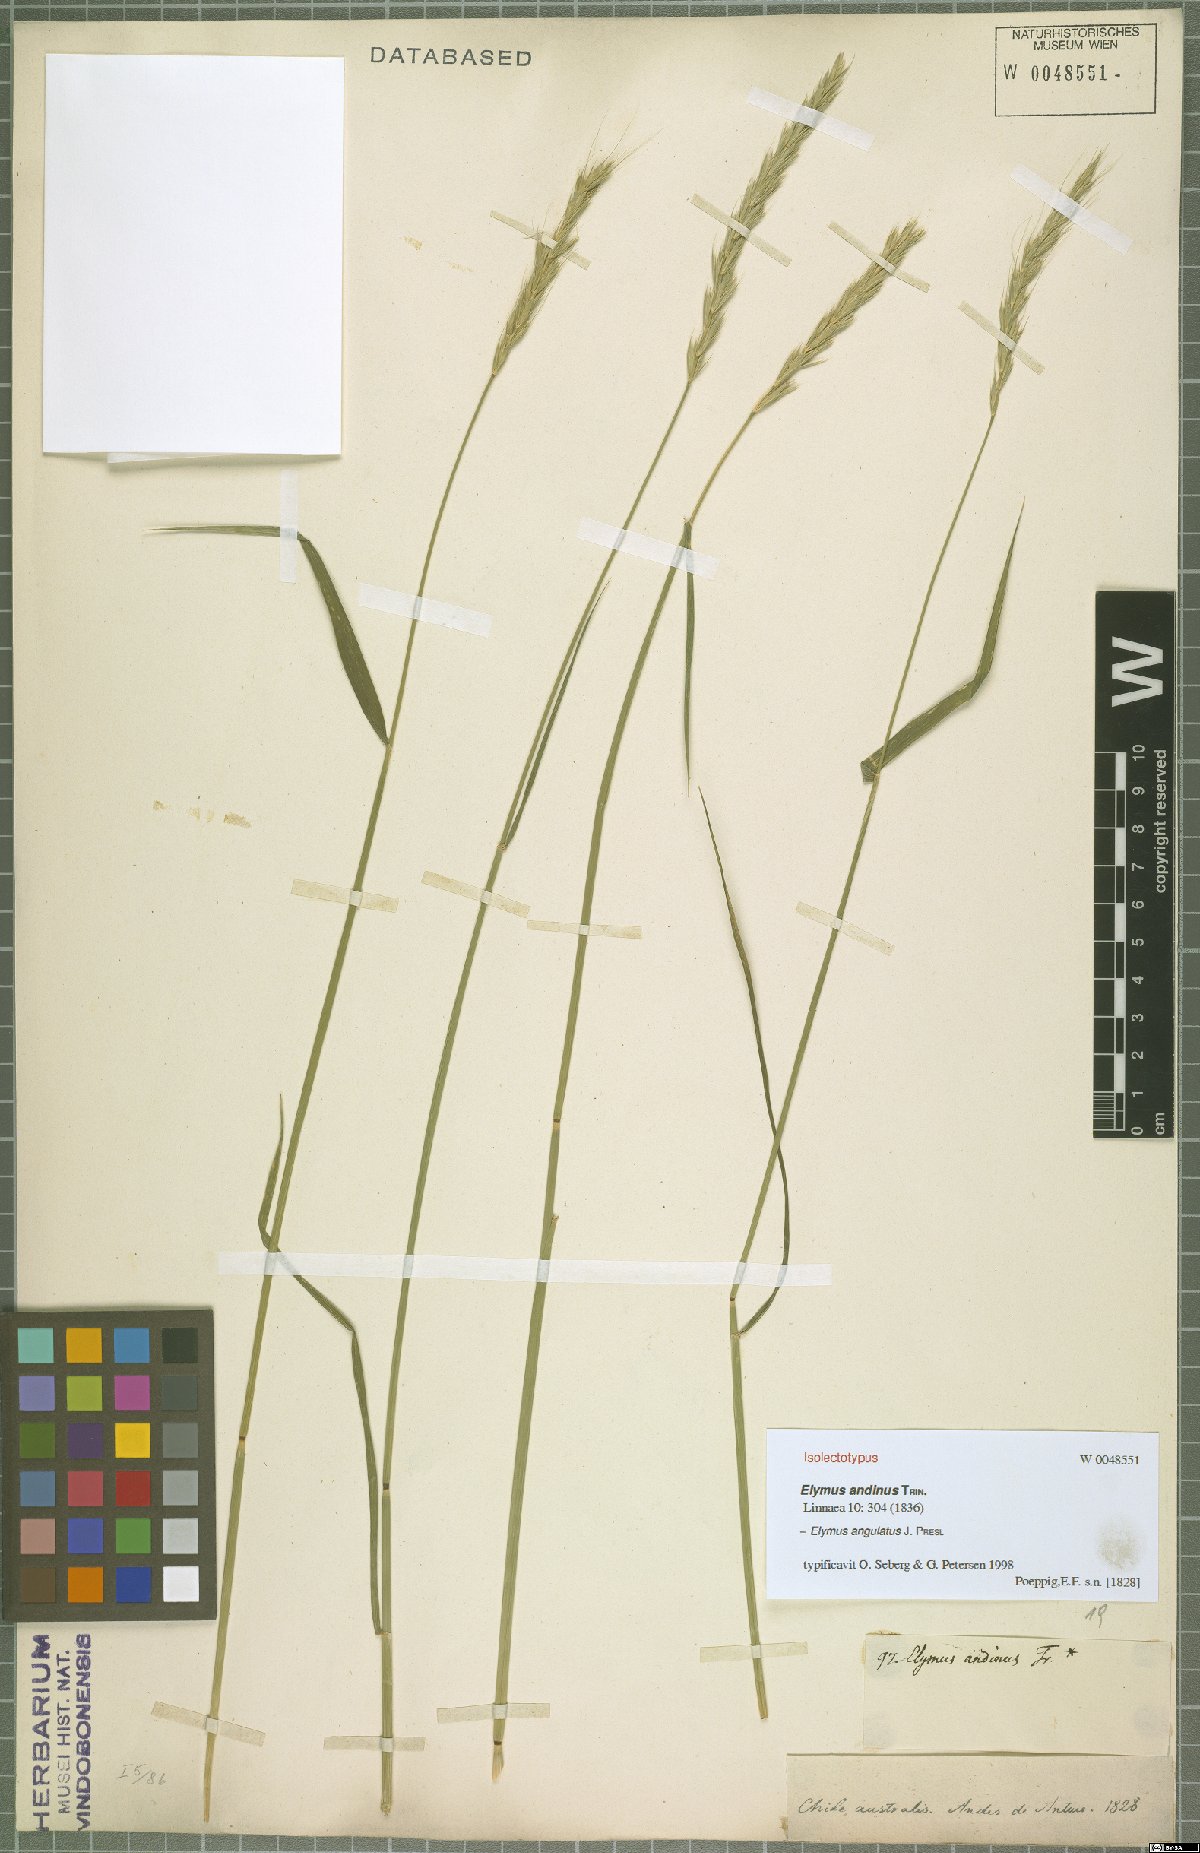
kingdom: Plantae
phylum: Tracheophyta
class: Liliopsida
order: Poales
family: Poaceae
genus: Elymus
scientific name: Elymus angulatus
